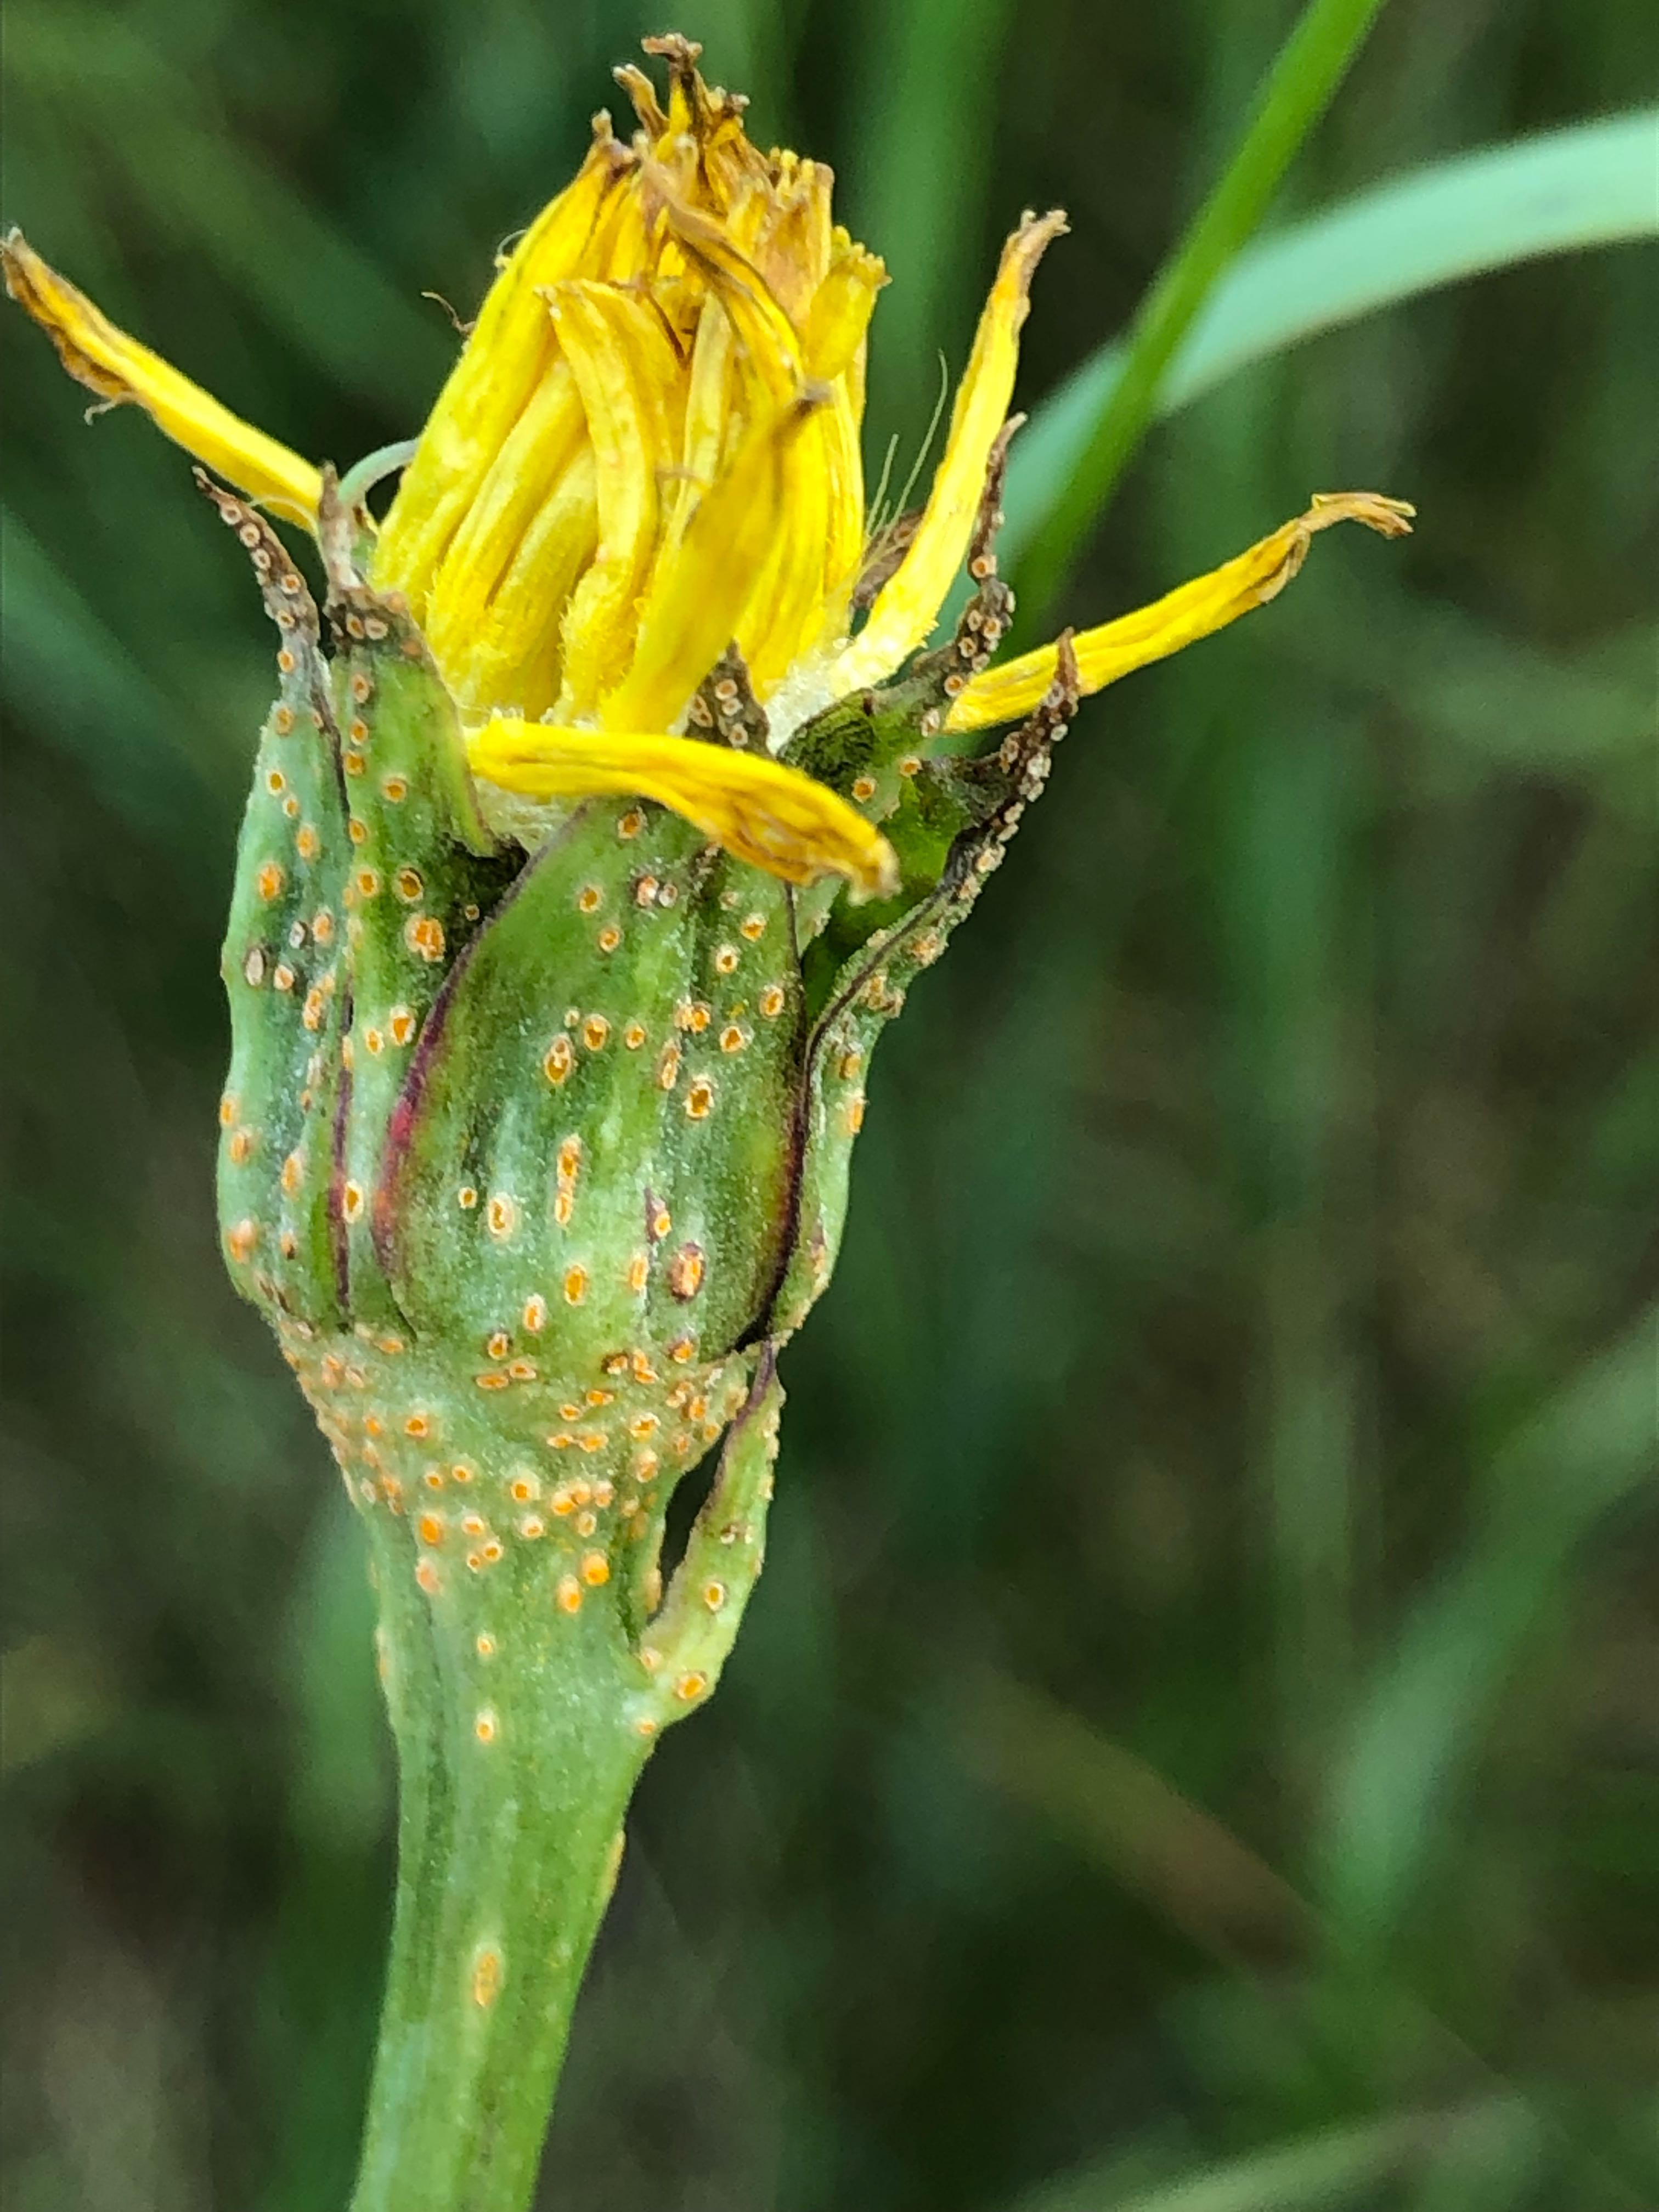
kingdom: Fungi
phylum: Basidiomycota
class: Pucciniomycetes
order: Pucciniales
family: Pucciniaceae
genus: Puccinia
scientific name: Puccinia hysterium
